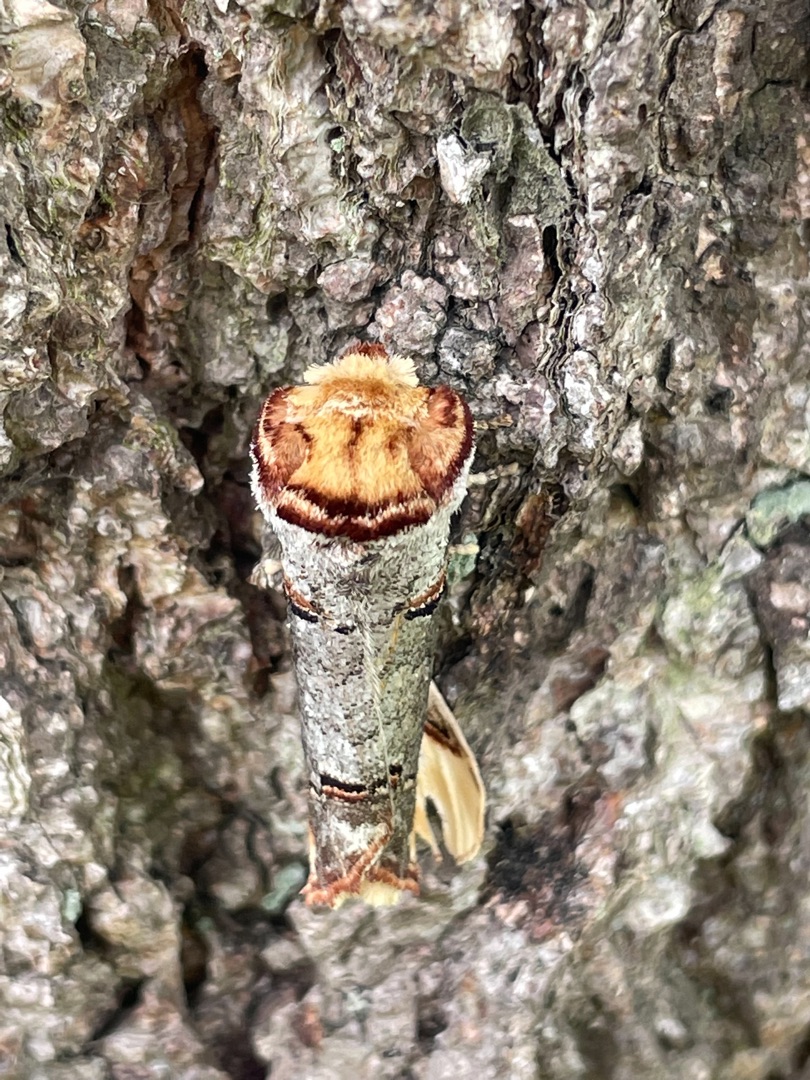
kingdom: Animalia
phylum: Arthropoda
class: Insecta
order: Lepidoptera
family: Notodontidae
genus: Phalera
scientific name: Phalera bucephala
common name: Måneplet
